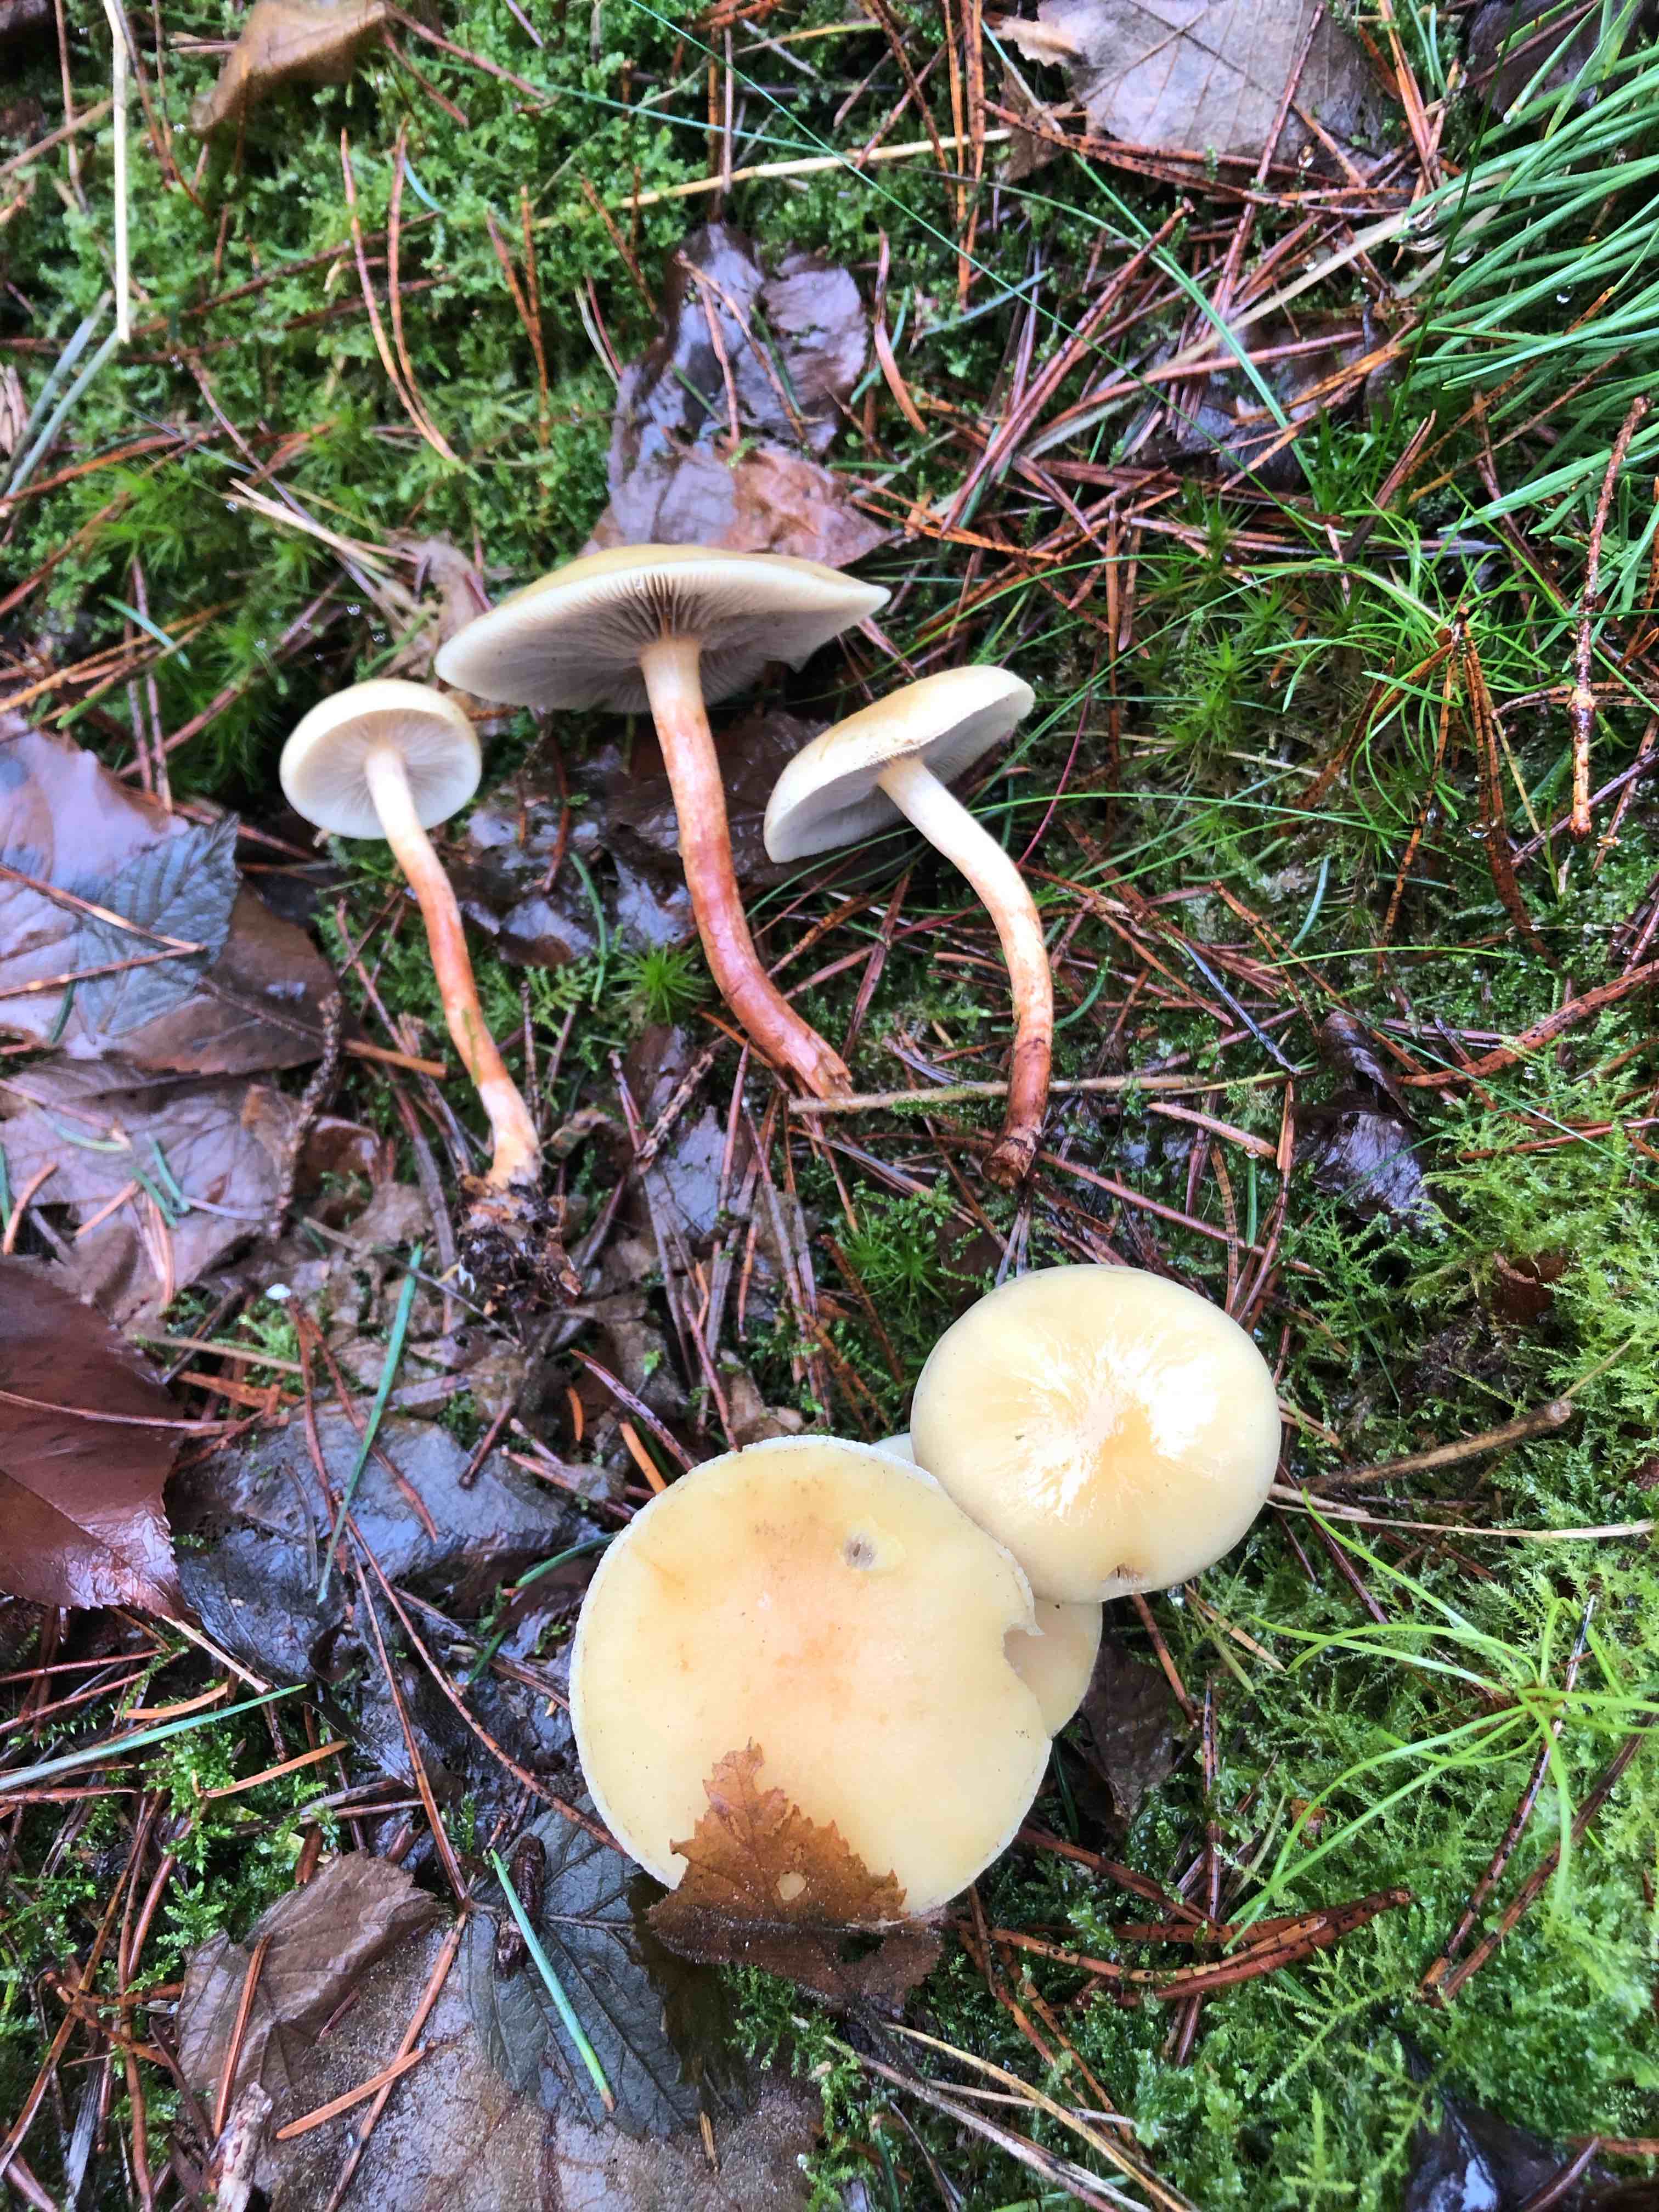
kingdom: Fungi
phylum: Basidiomycota
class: Agaricomycetes
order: Agaricales
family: Strophariaceae
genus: Hypholoma
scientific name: Hypholoma capnoides
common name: gran-svovlhat
